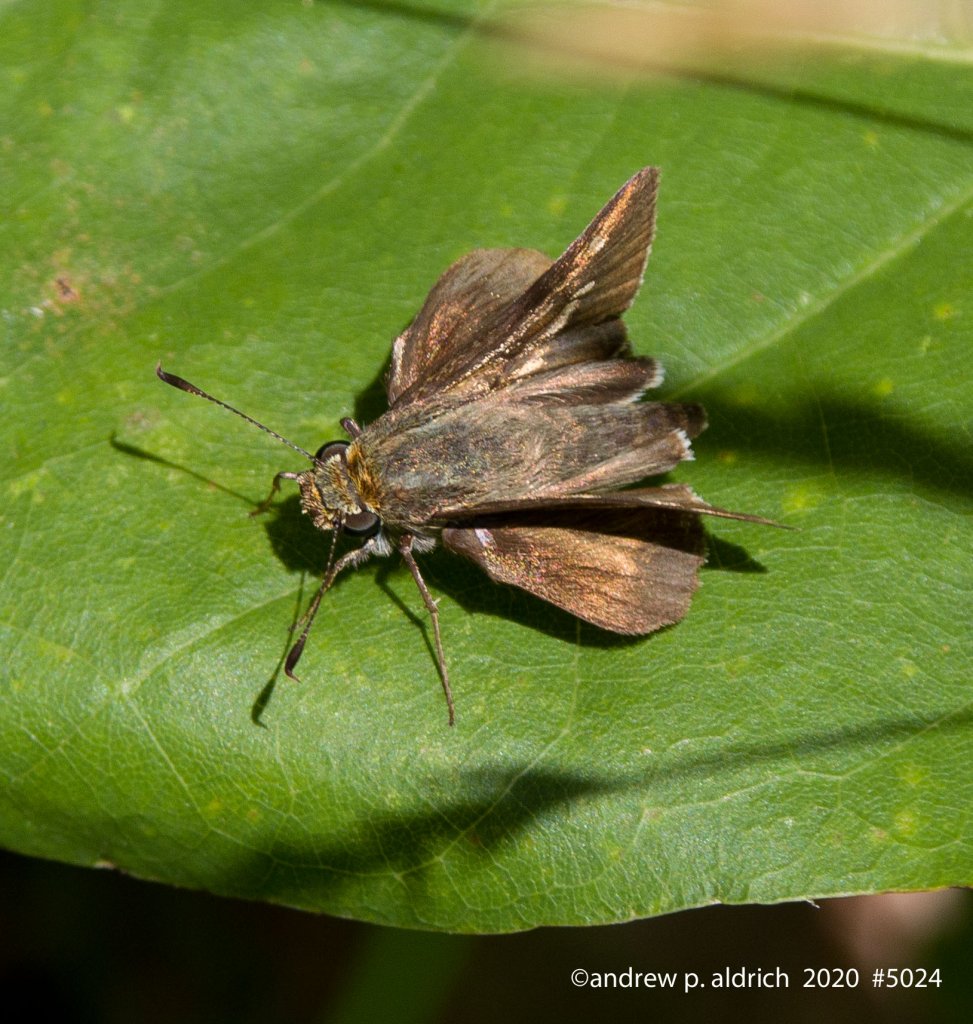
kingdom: Animalia
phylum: Arthropoda
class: Insecta
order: Lepidoptera
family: Hesperiidae
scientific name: Hesperiidae
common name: Skippers
